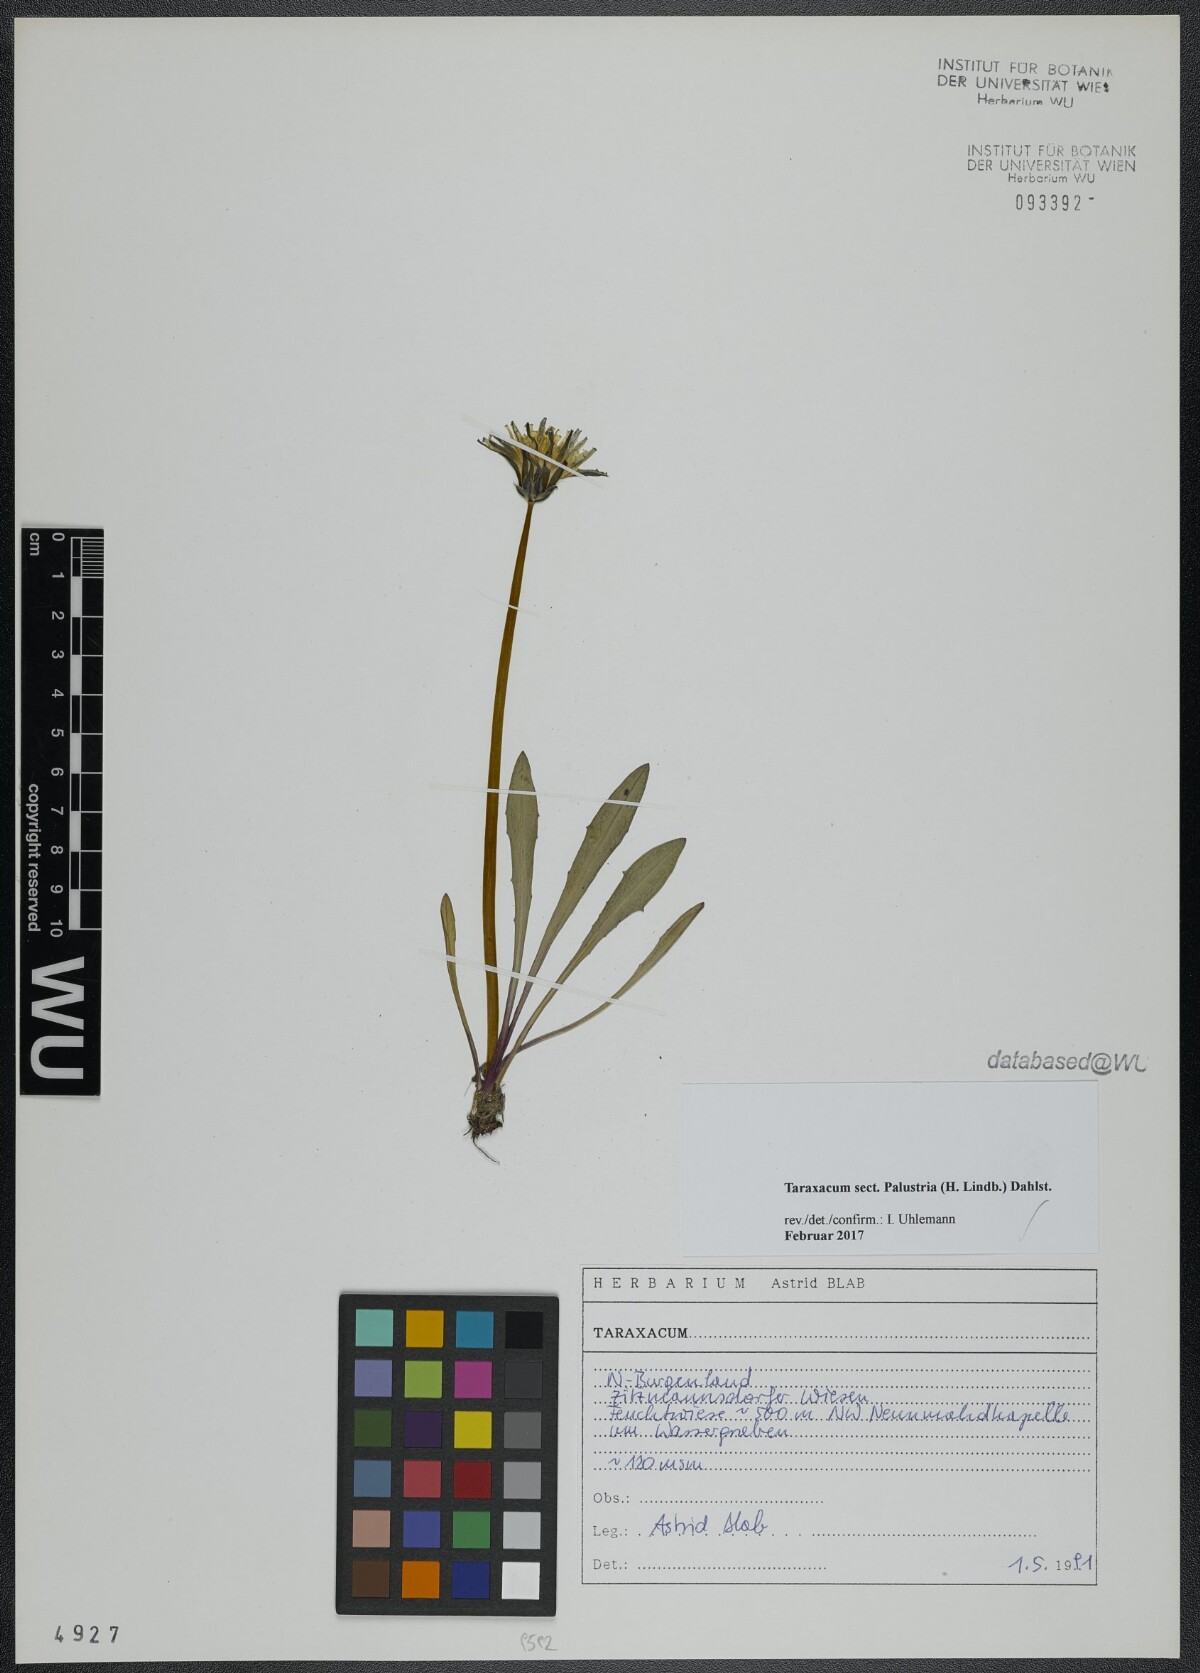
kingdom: Plantae
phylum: Tracheophyta
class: Magnoliopsida
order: Asterales
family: Asteraceae
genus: Taraxacum
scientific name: Taraxacum
